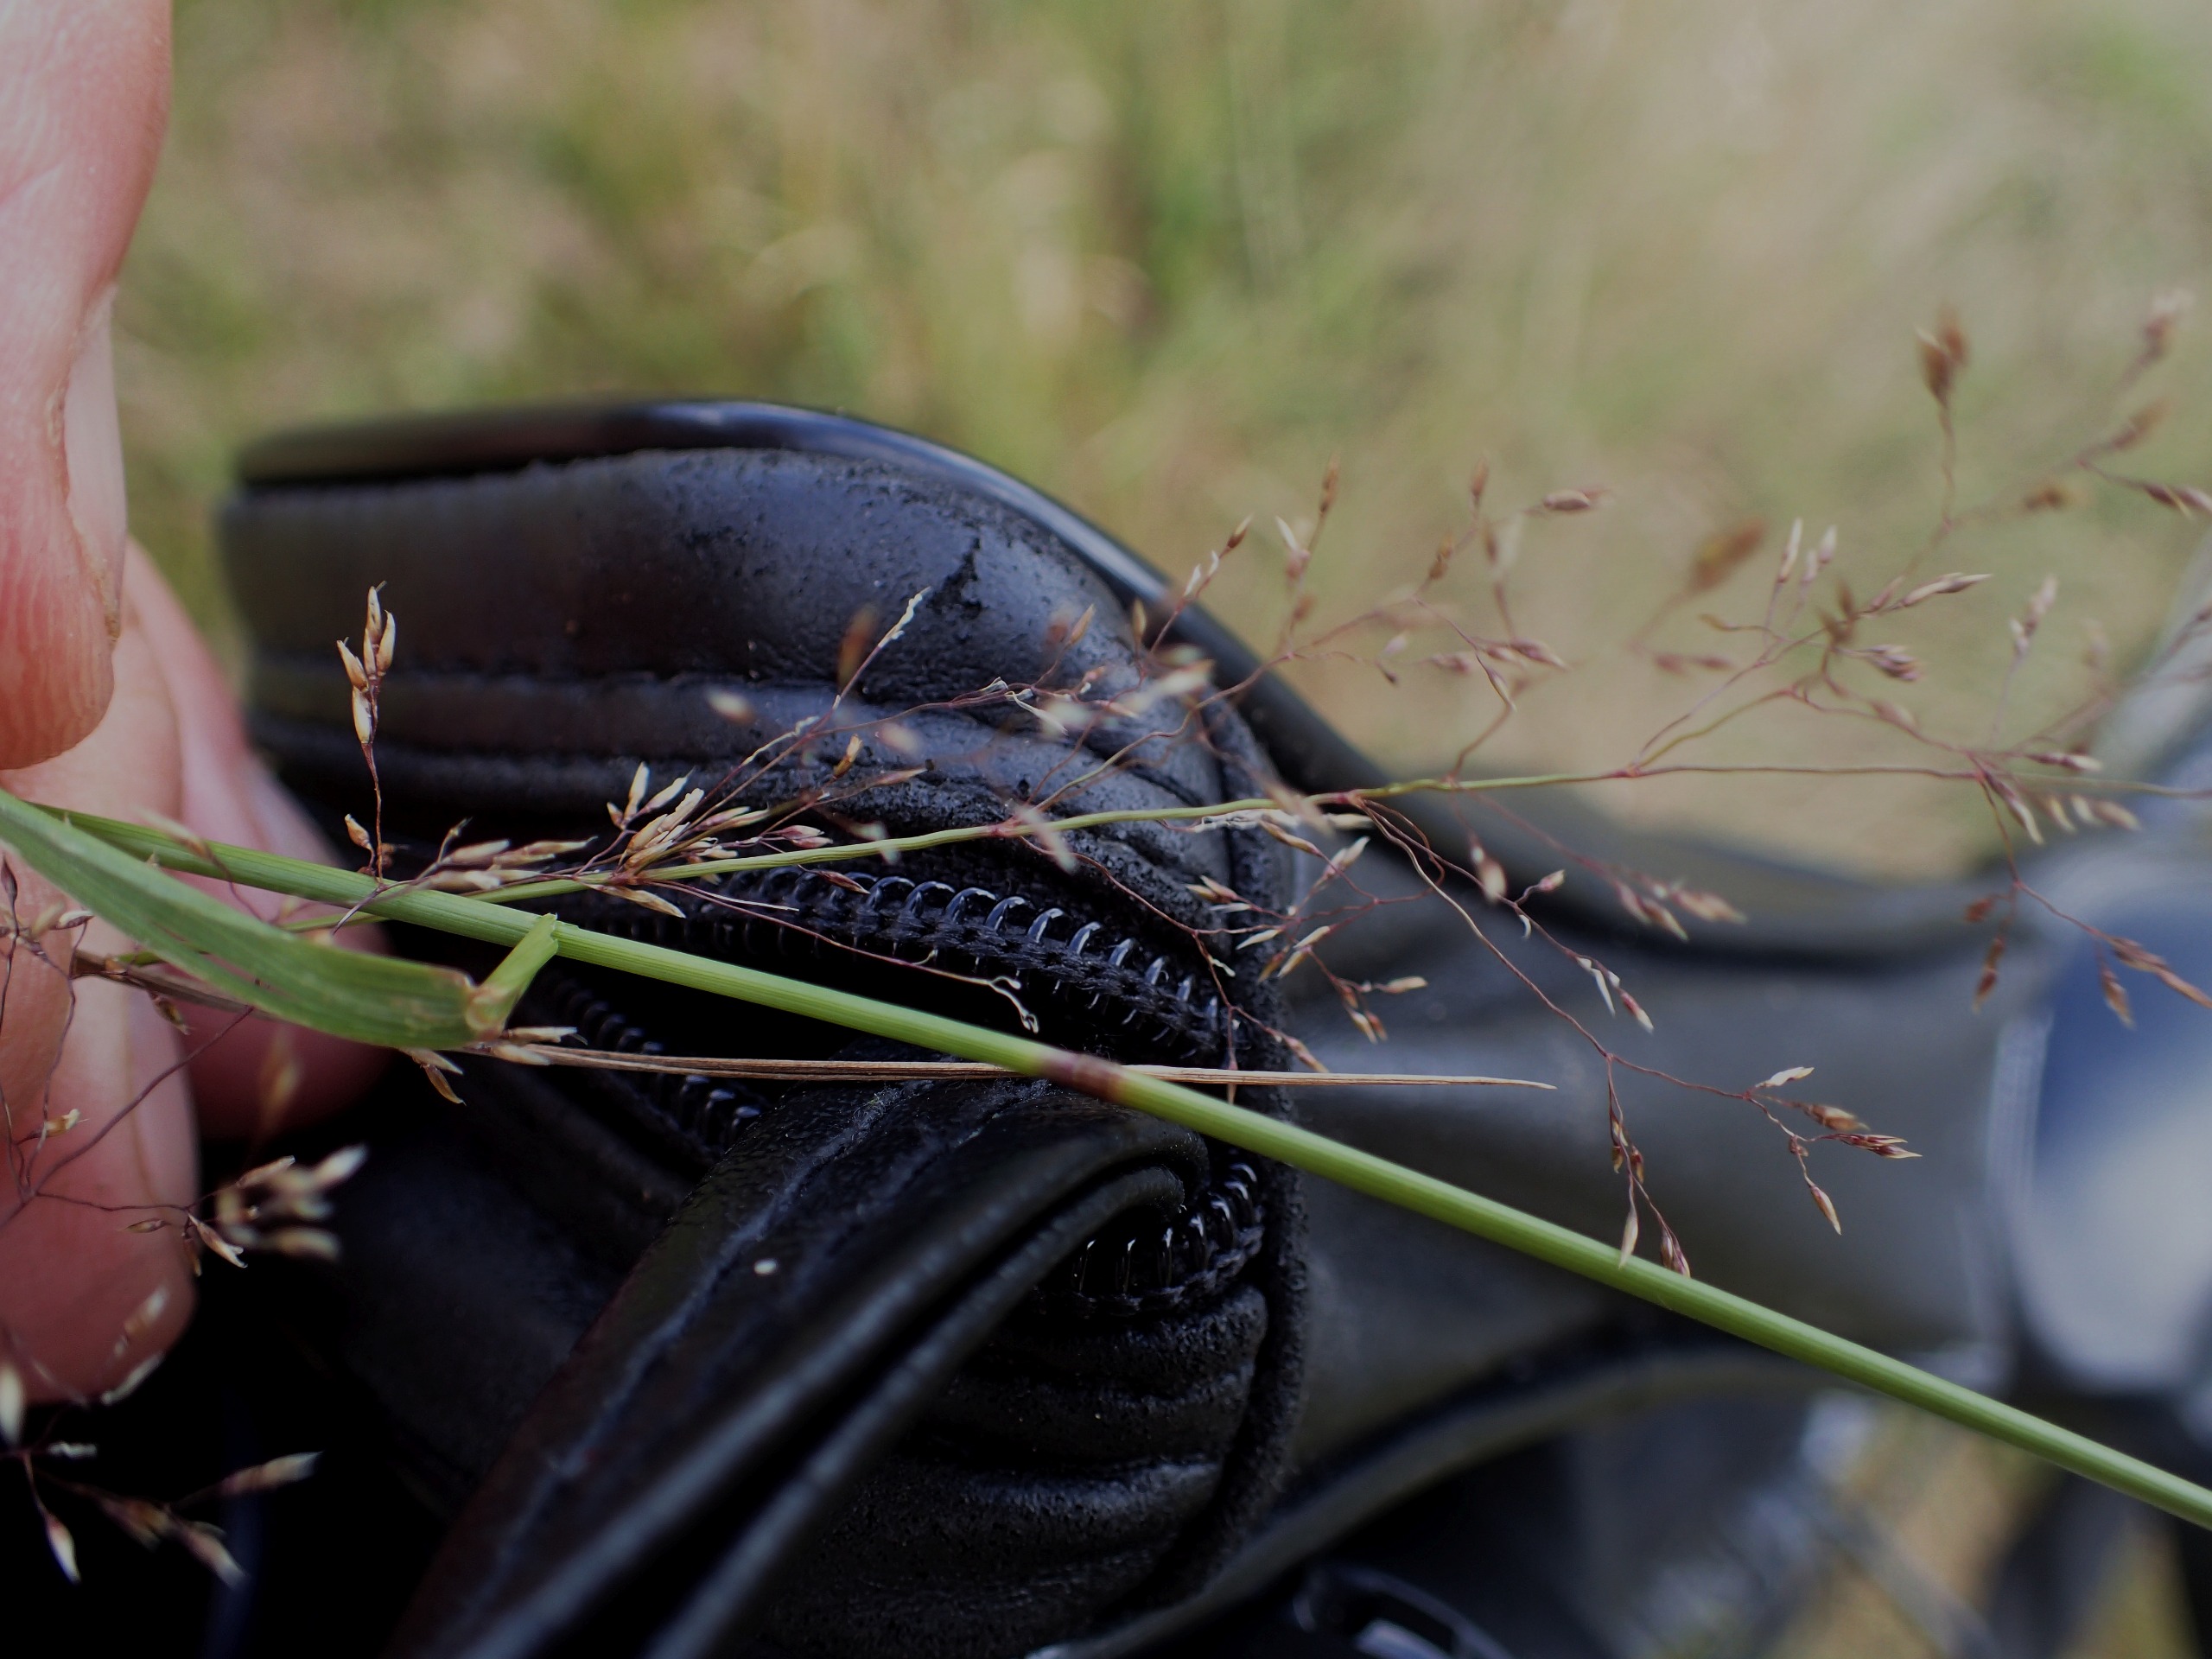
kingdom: Plantae
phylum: Tracheophyta
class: Liliopsida
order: Poales
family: Poaceae
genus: Agrostis
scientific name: Agrostis capillaris
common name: Almindelig hvene
